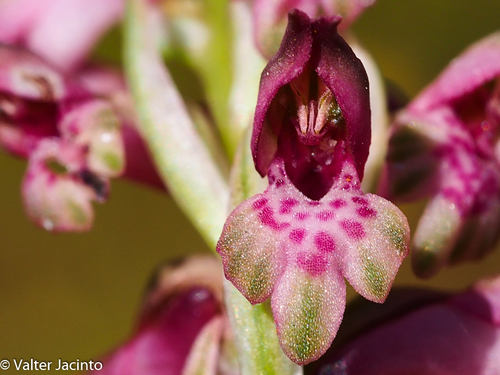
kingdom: Plantae
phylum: Tracheophyta
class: Liliopsida
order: Asparagales
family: Orchidaceae
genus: Anacamptis
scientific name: Anacamptis coriophora
